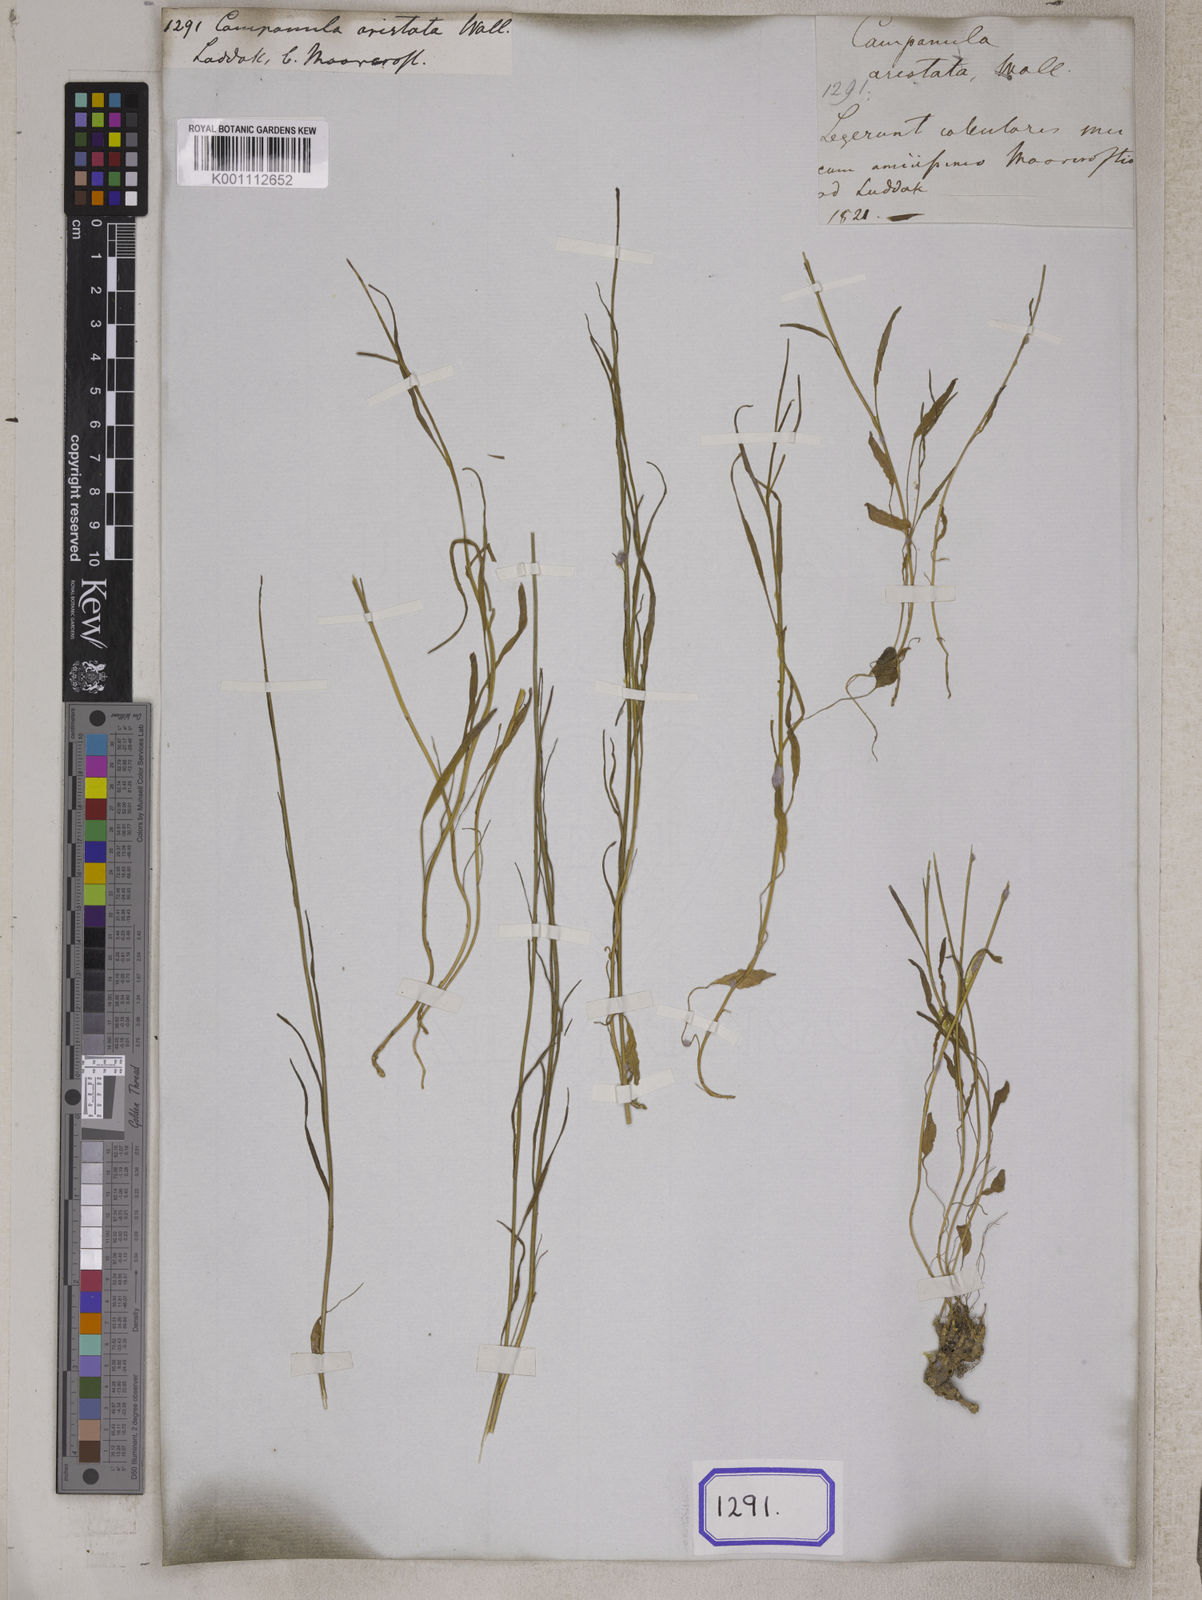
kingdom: Plantae
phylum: Tracheophyta
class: Magnoliopsida
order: Asterales
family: Campanulaceae
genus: Campanula
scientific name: Campanula aristata
